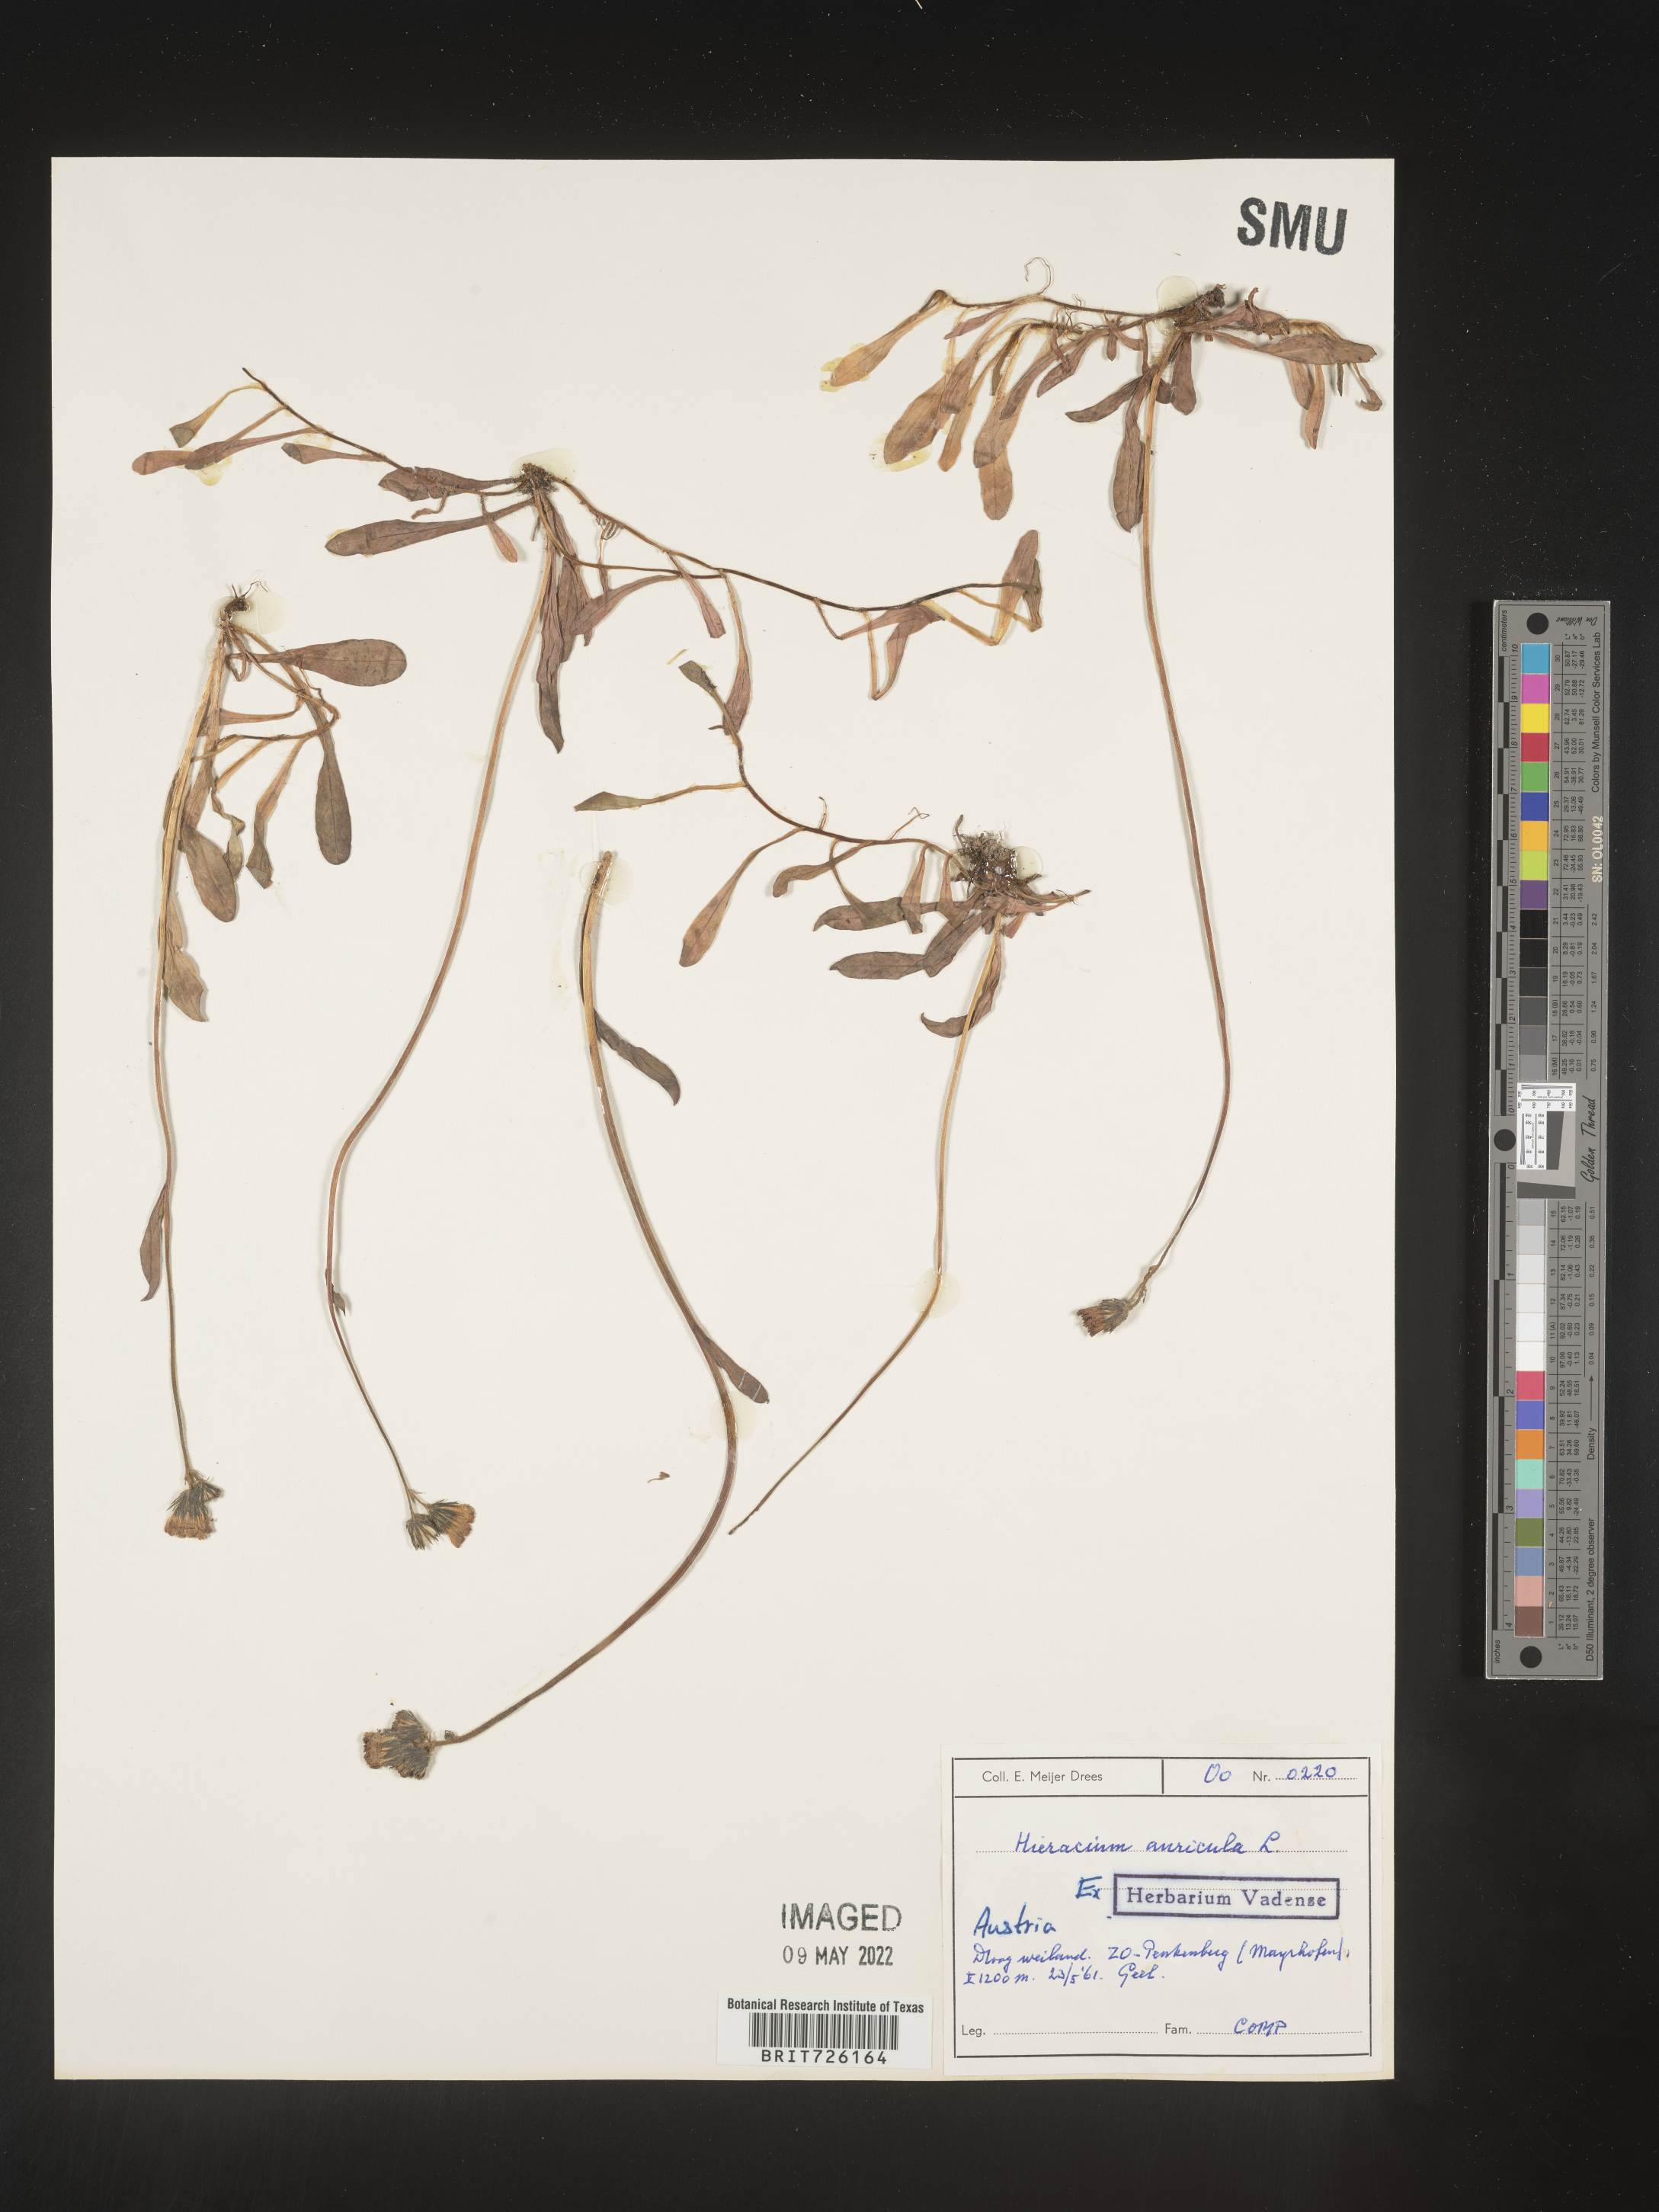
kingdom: Plantae
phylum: Tracheophyta
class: Magnoliopsida
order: Asterales
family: Asteraceae
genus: Hieracium
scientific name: Hieracium
